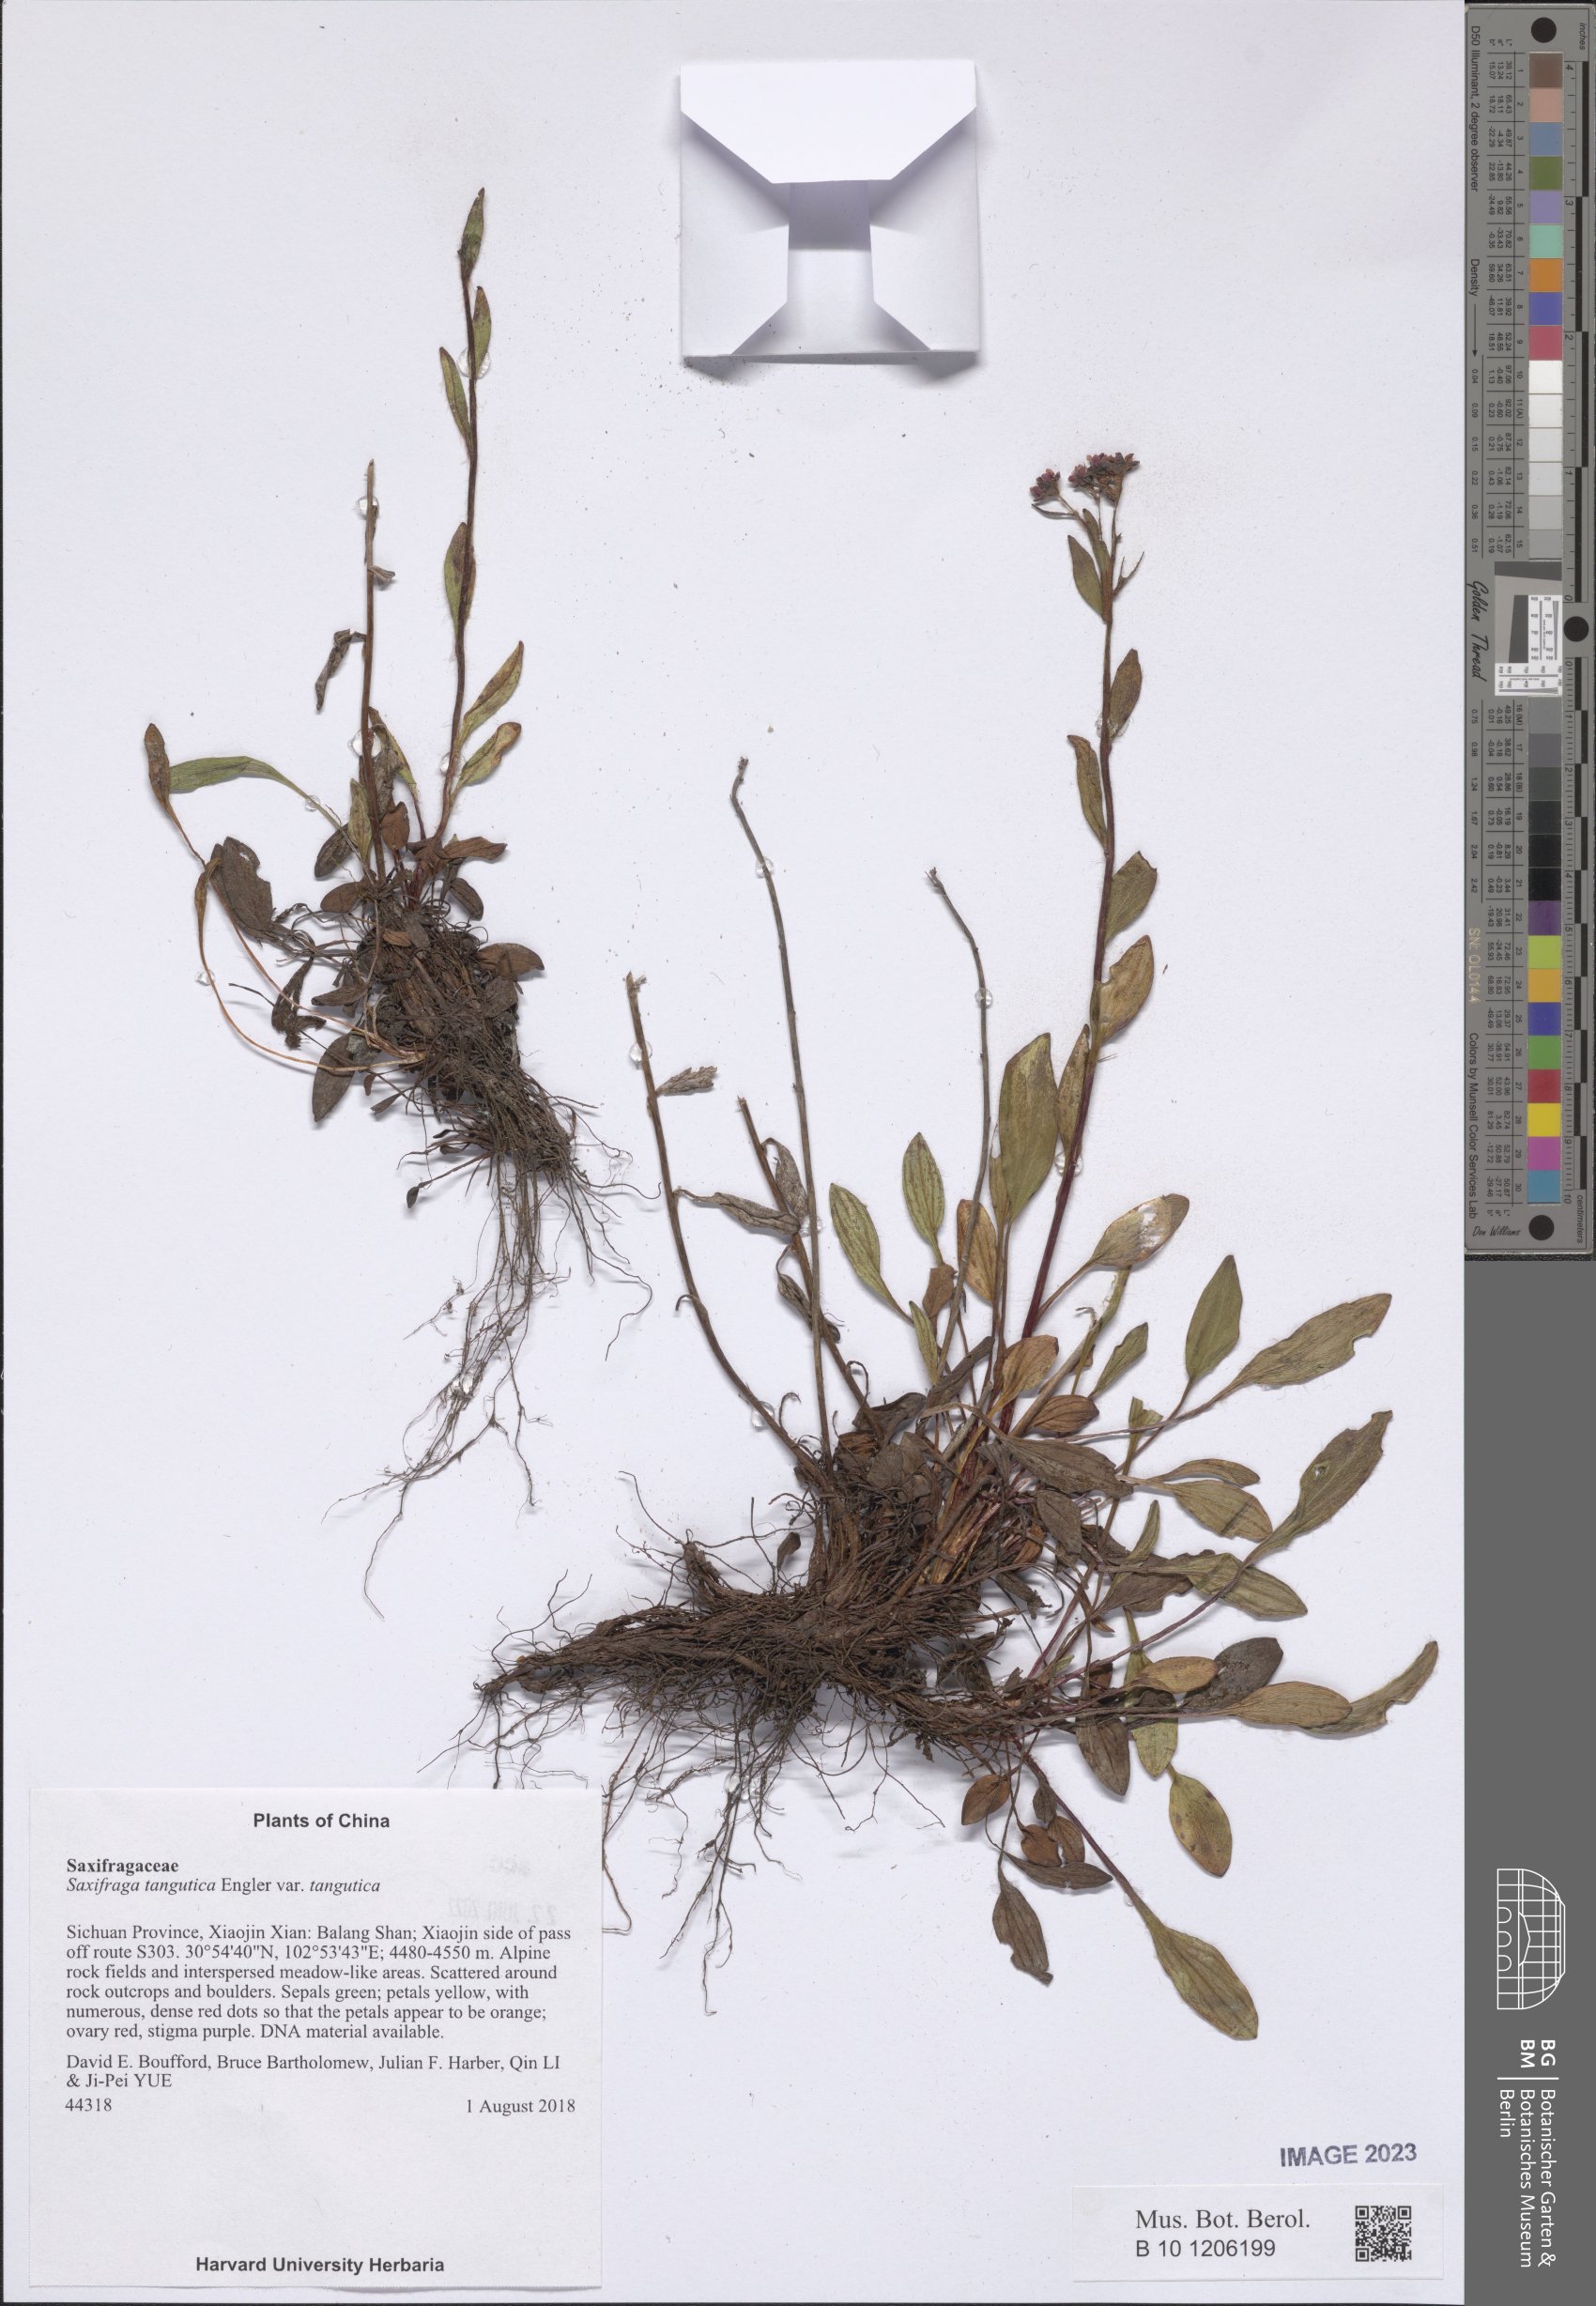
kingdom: Plantae
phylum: Tracheophyta
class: Magnoliopsida
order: Saxifragales
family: Saxifragaceae
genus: Saxifraga
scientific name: Saxifraga tangutica
